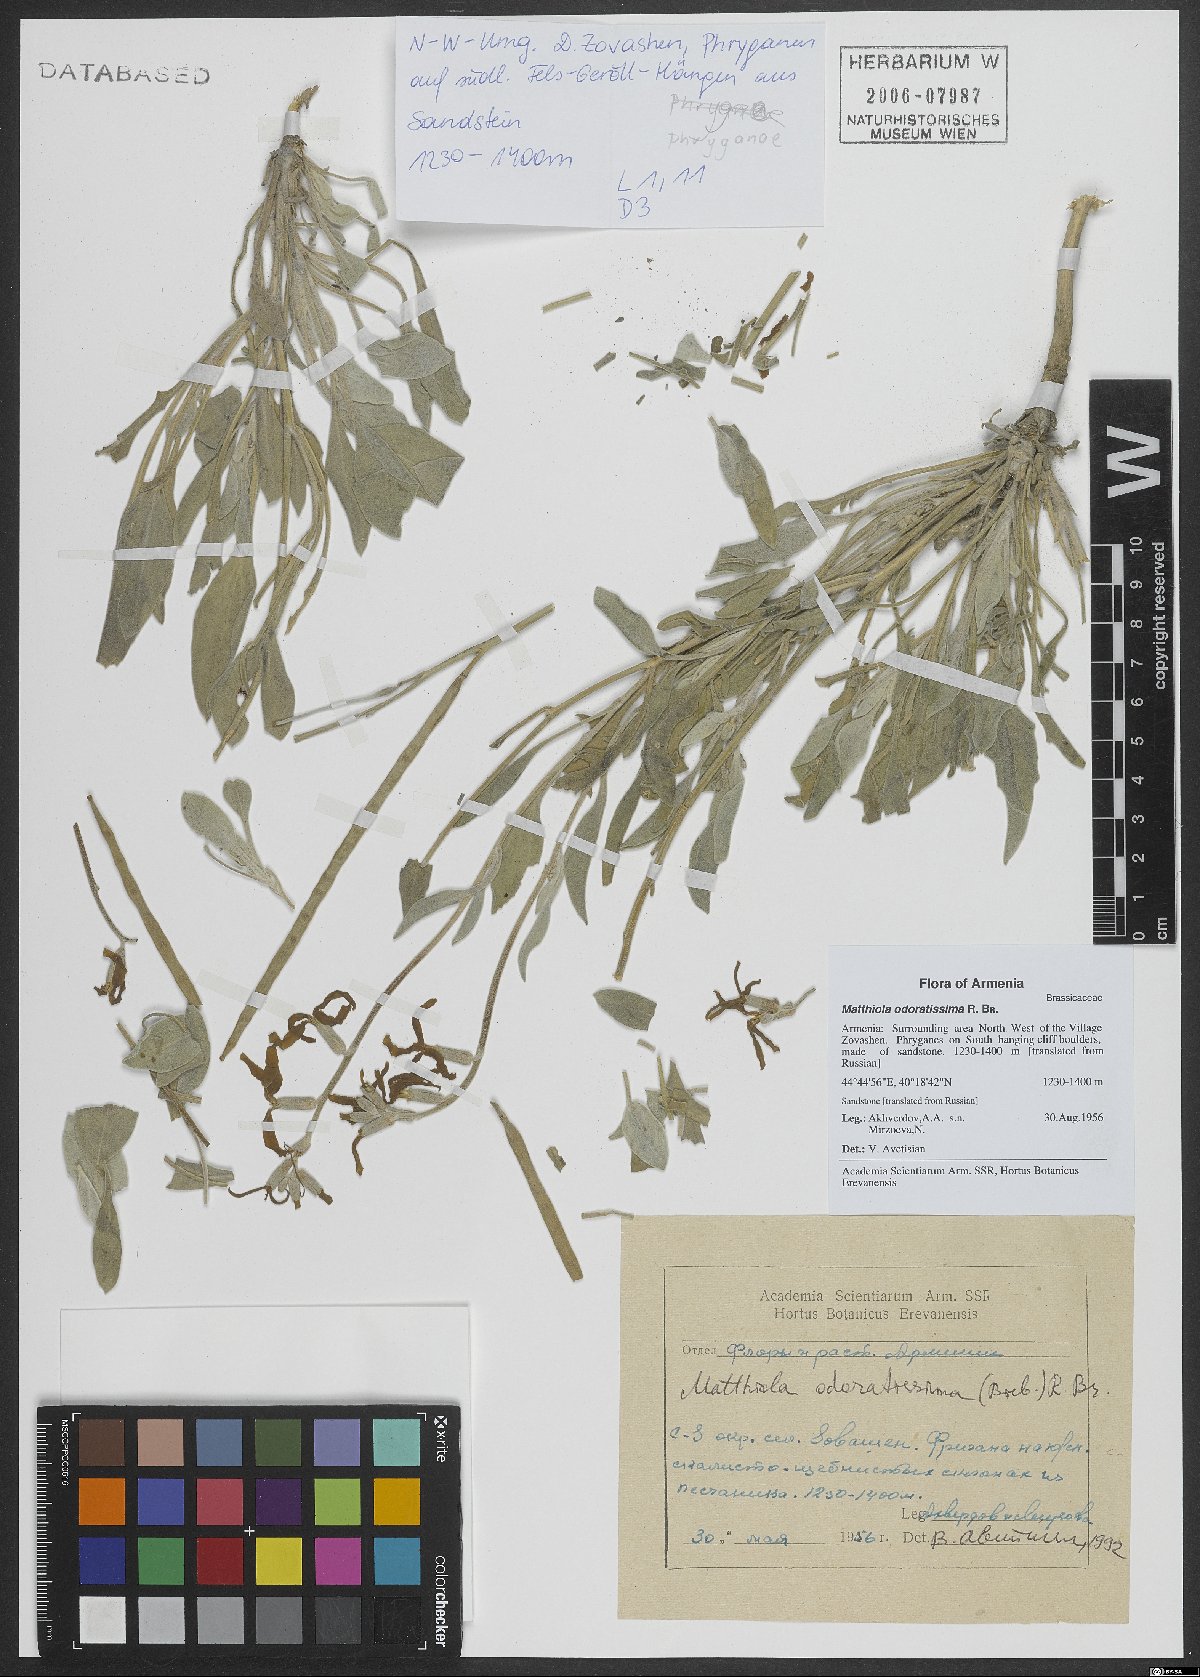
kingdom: Plantae
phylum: Tracheophyta
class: Magnoliopsida
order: Brassicales
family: Brassicaceae
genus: Matthiola
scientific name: Matthiola spathulata
